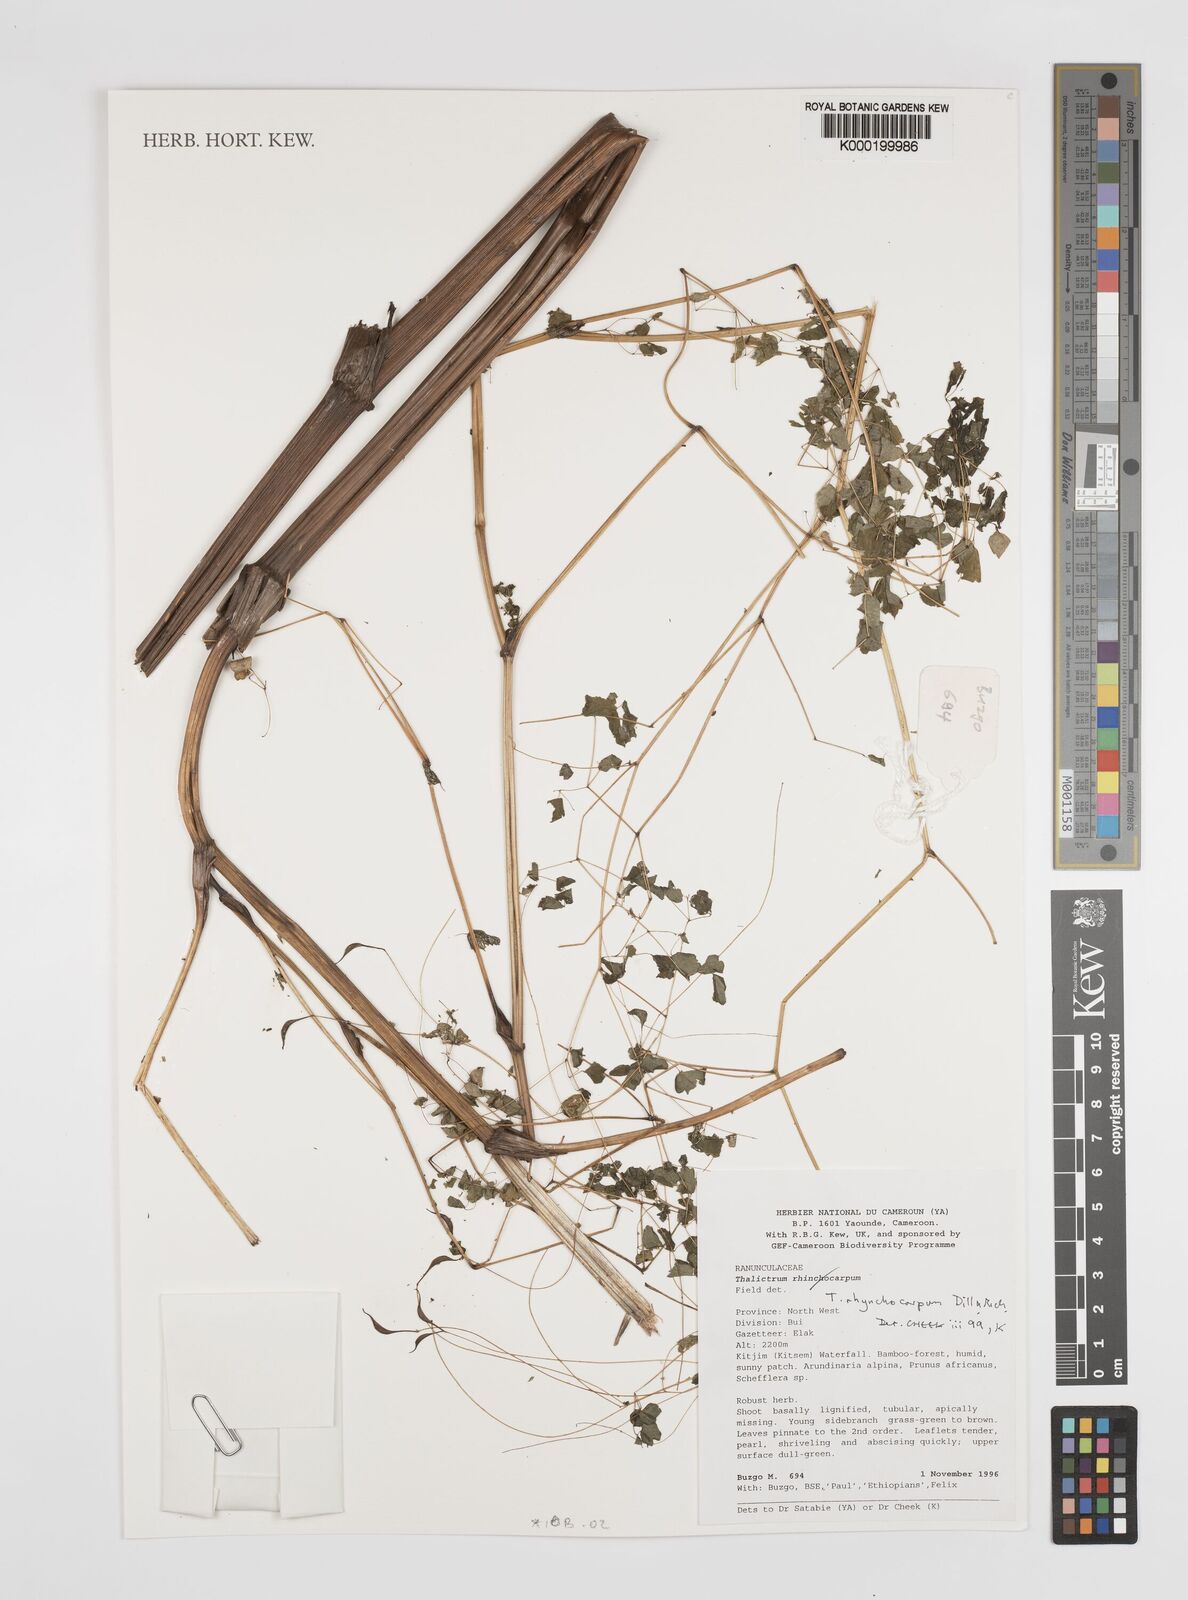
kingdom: Plantae
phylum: Tracheophyta
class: Magnoliopsida
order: Ranunculales
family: Ranunculaceae
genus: Thalictrum
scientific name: Thalictrum rhynchocarpum
